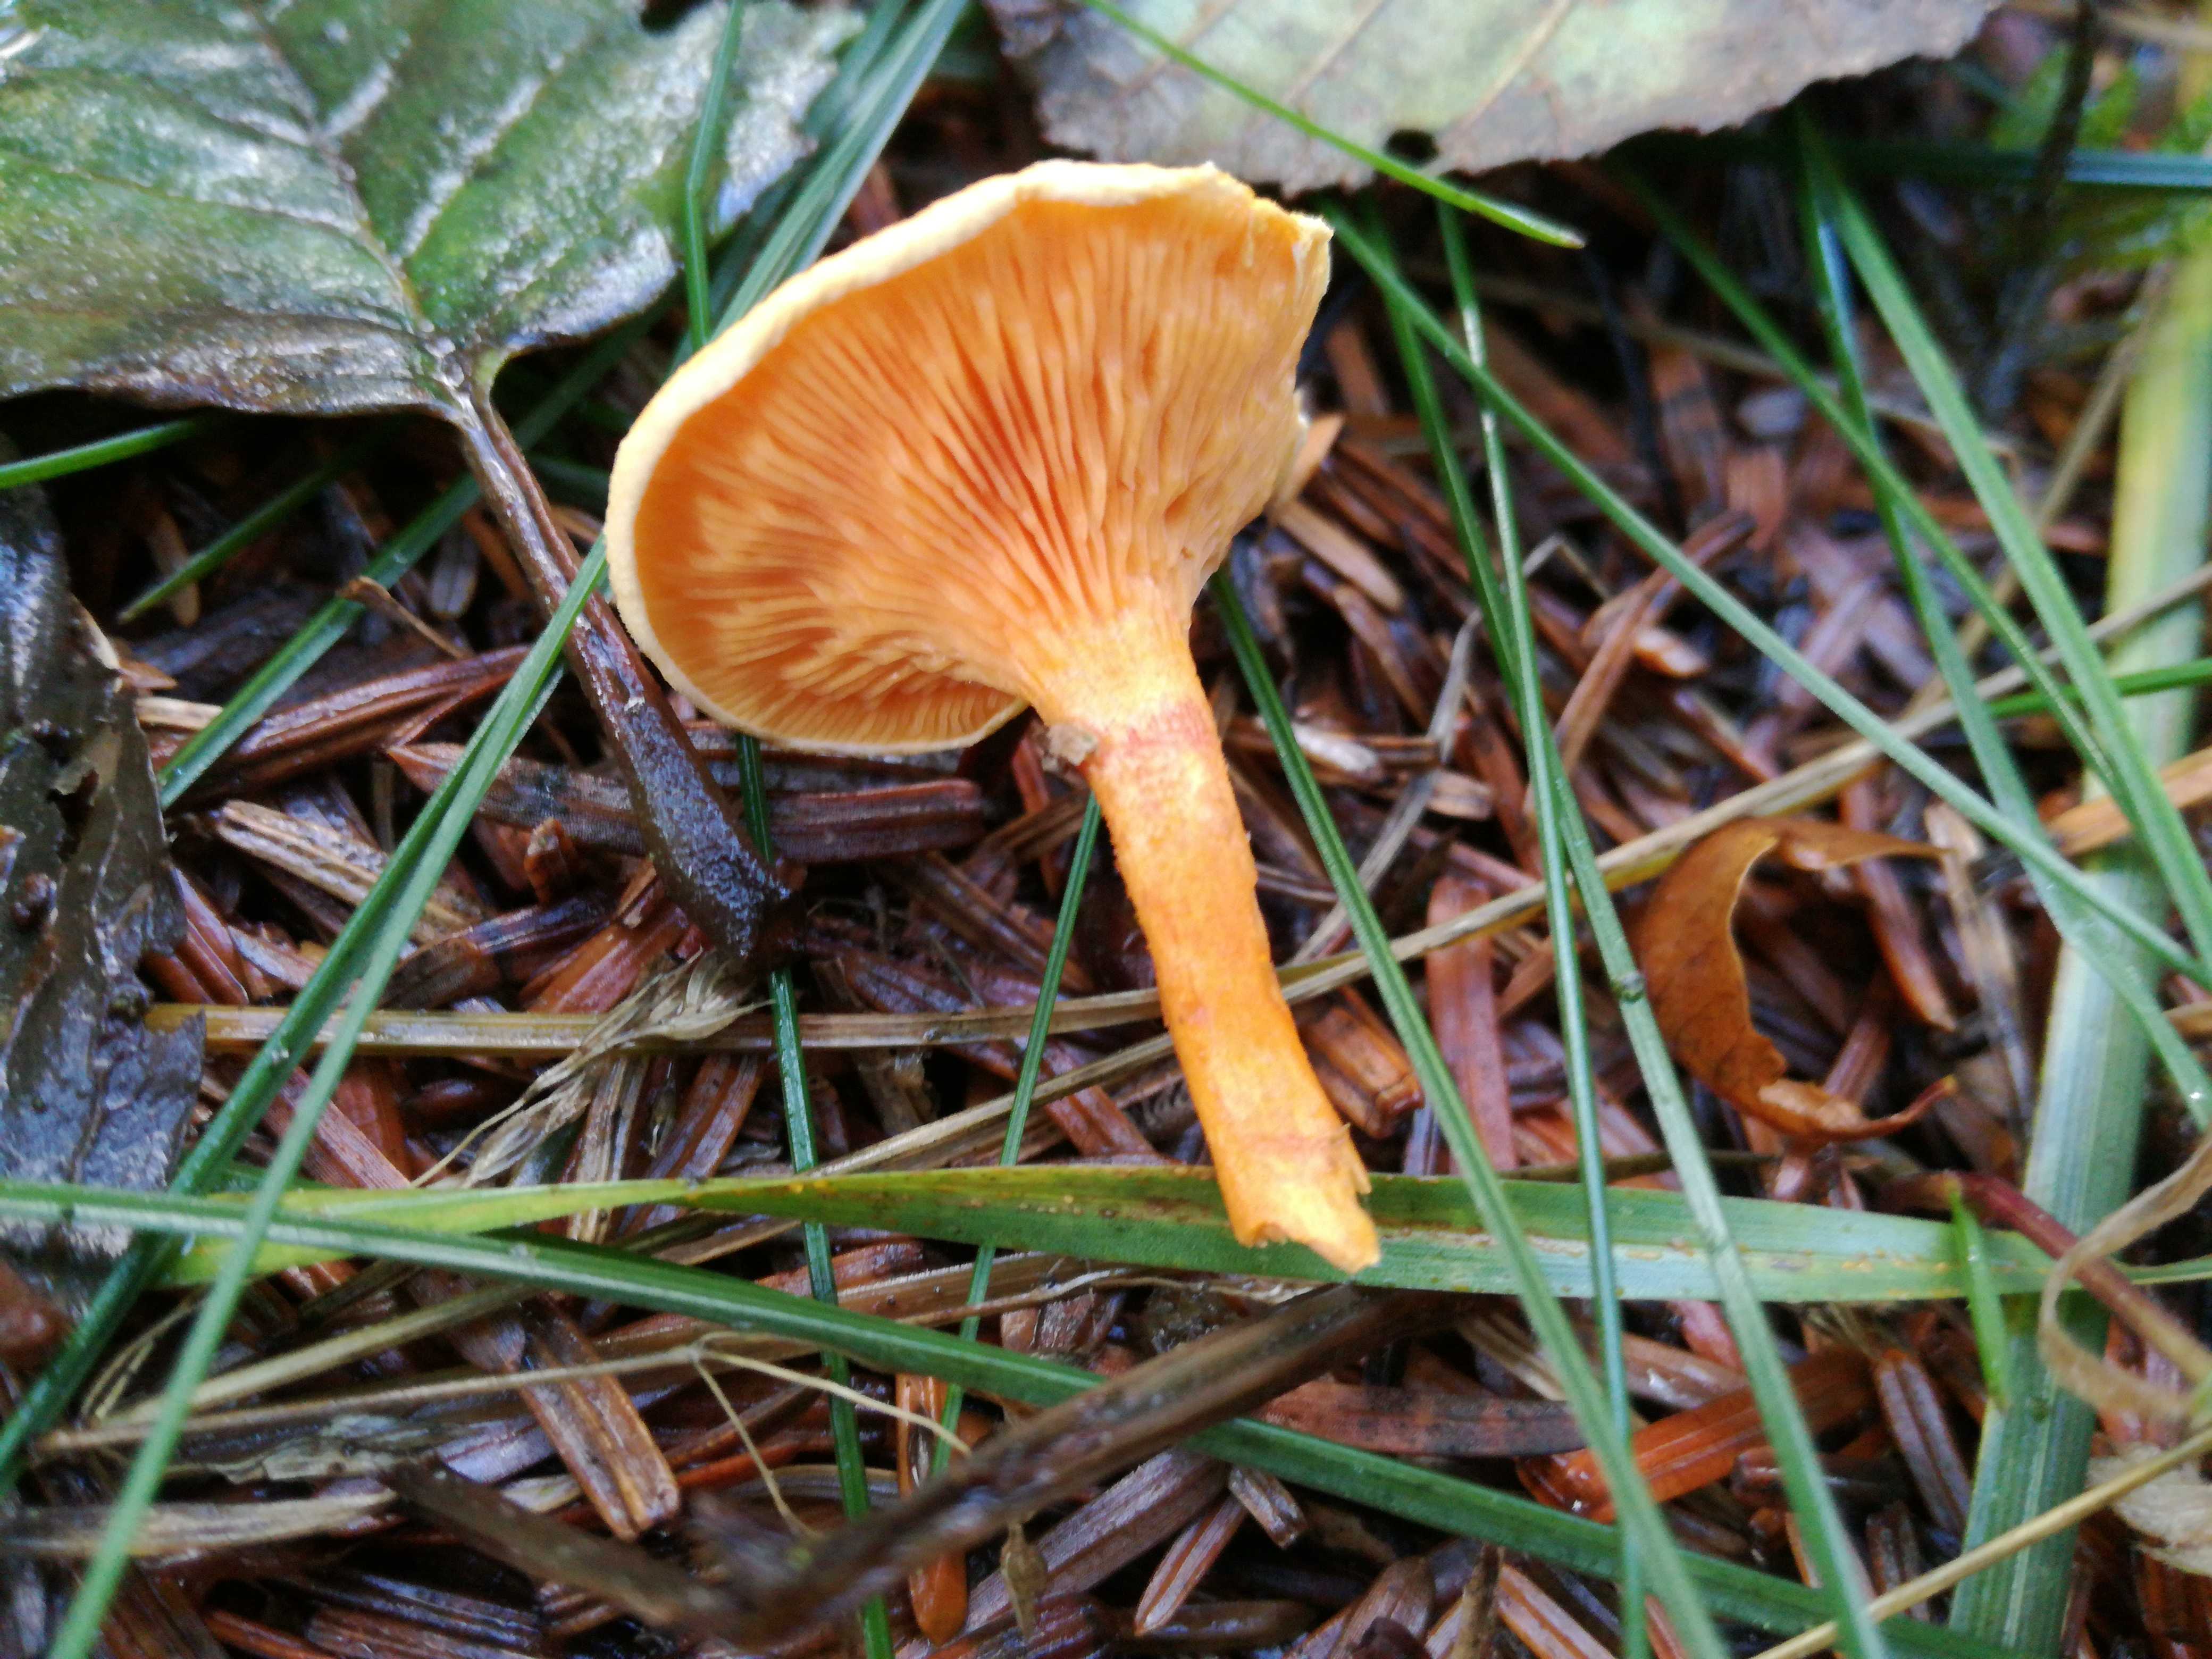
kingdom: Fungi
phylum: Basidiomycota
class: Agaricomycetes
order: Boletales
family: Hygrophoropsidaceae
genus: Hygrophoropsis
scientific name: Hygrophoropsis aurantiaca
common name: almindelig orangekantarel
